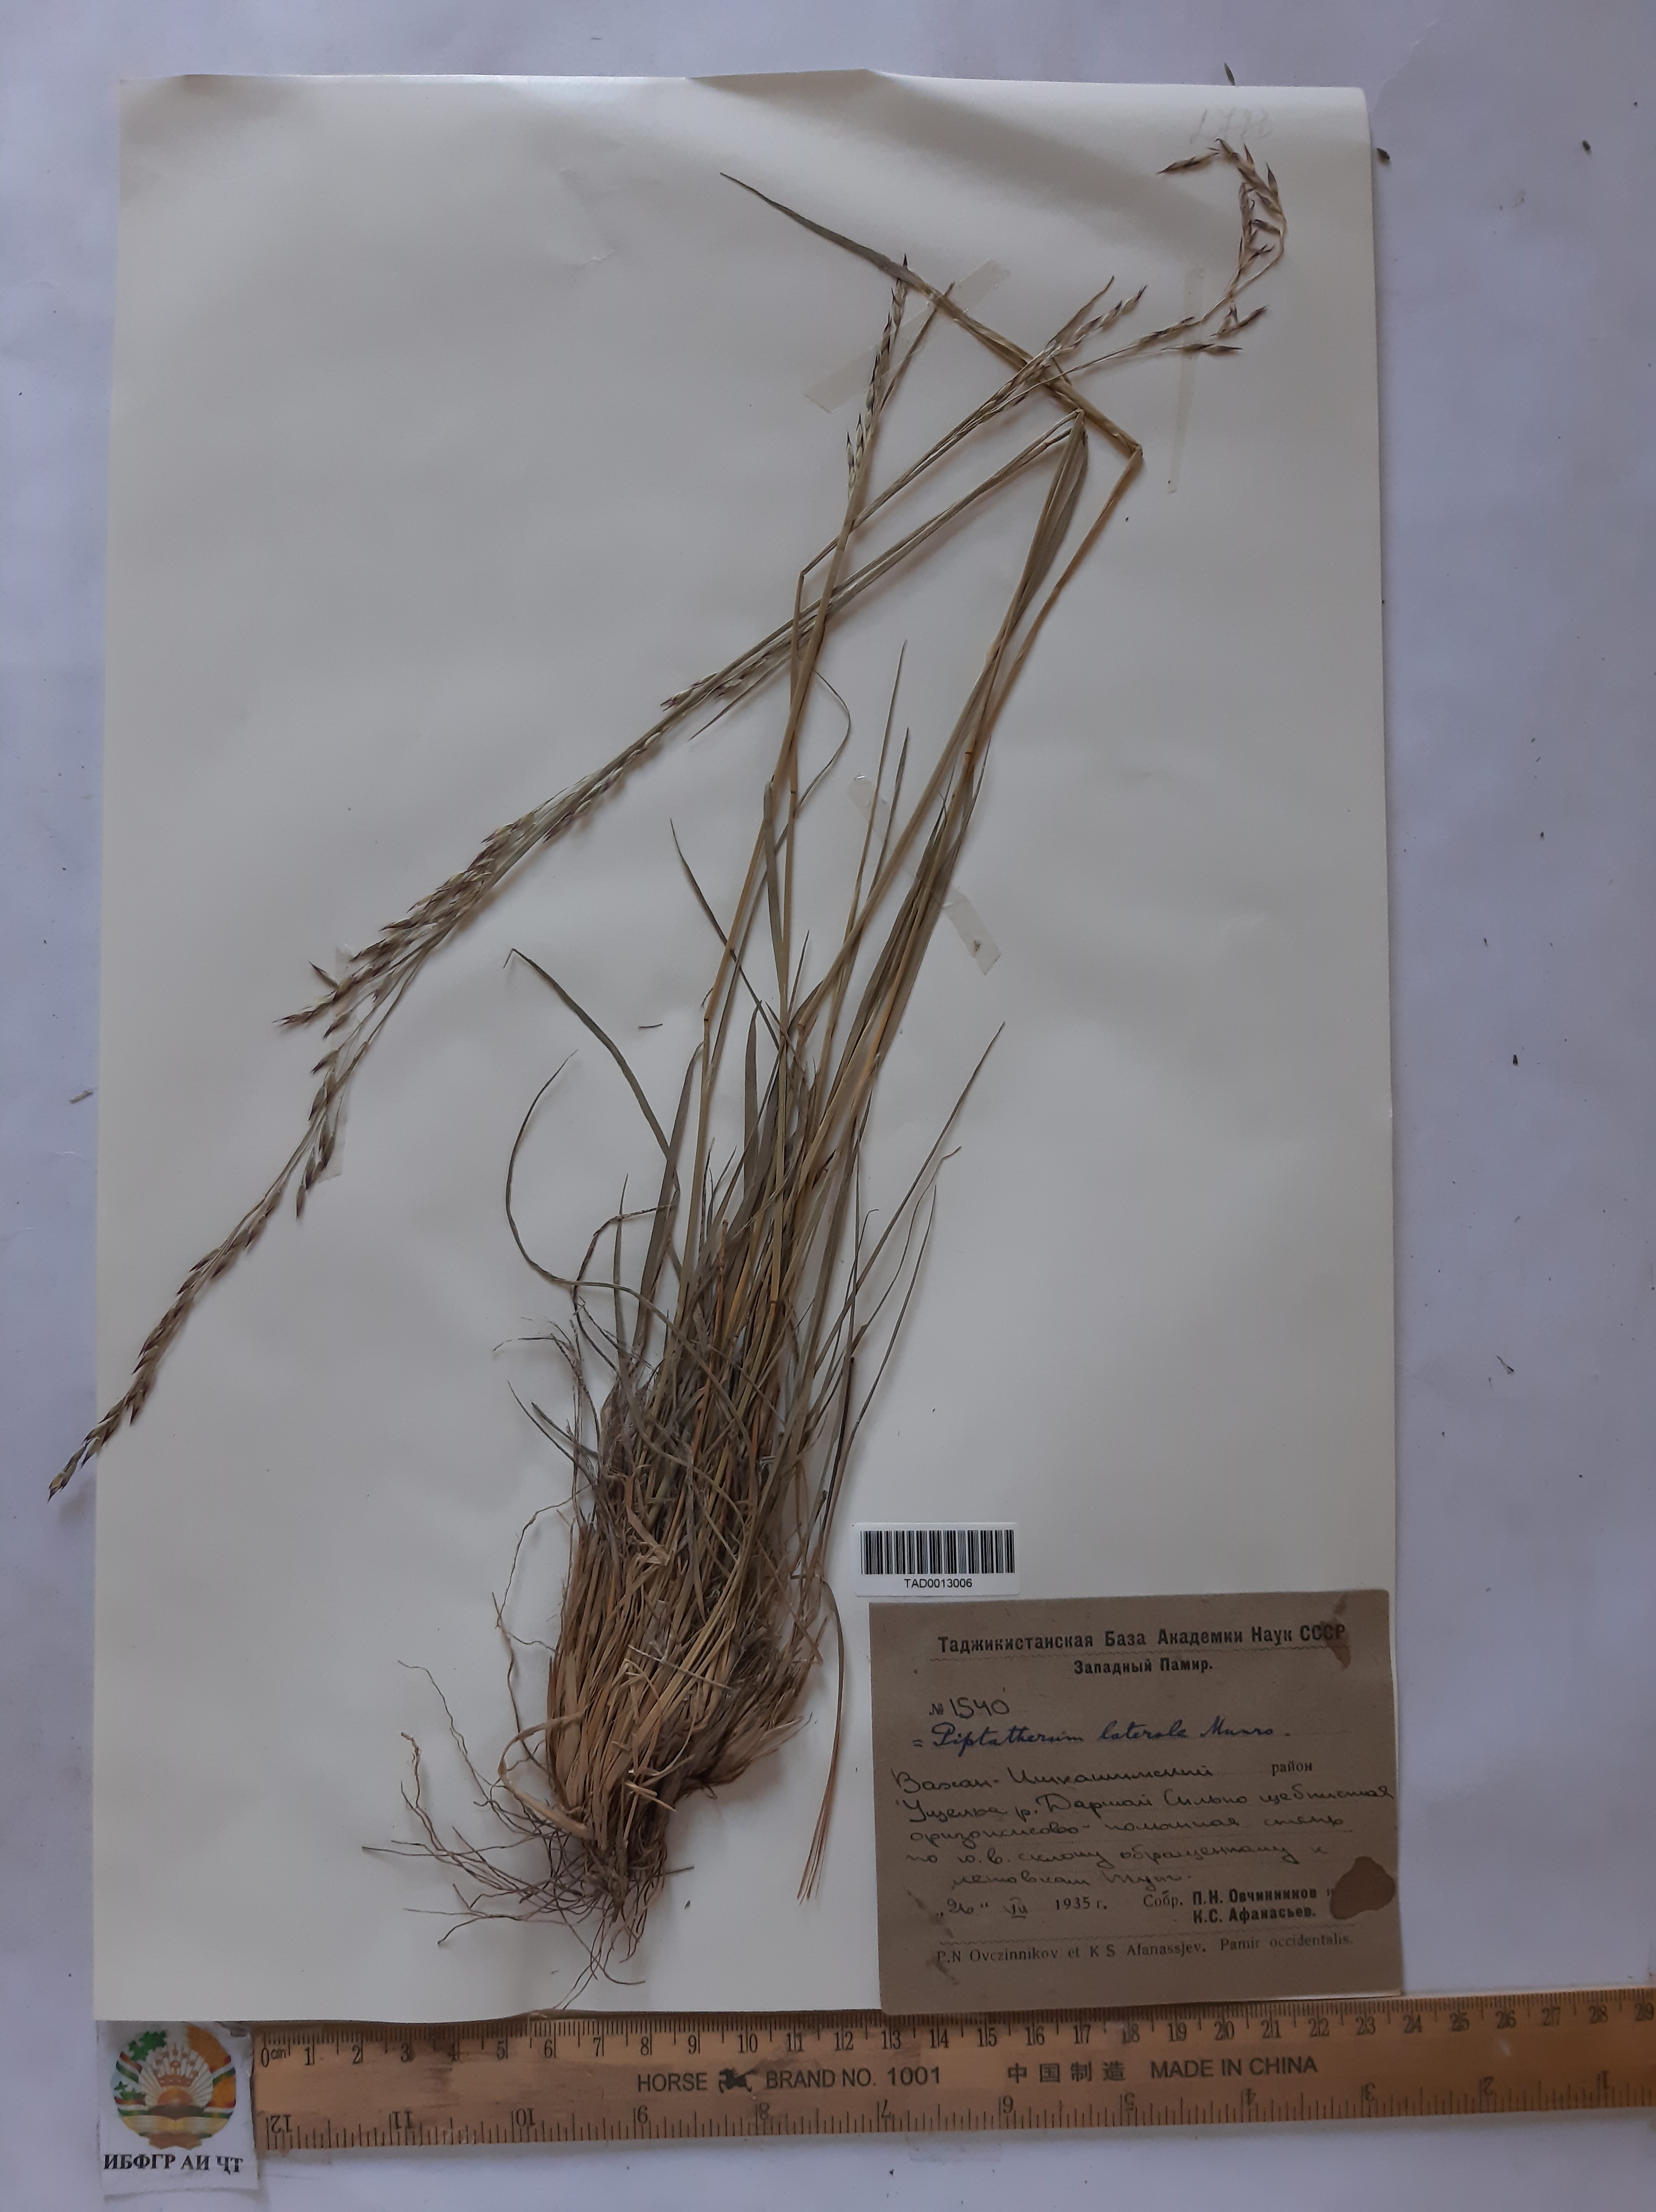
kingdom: Plantae
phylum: Tracheophyta
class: Liliopsida
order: Poales
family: Poaceae
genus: Piptatherum
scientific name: Piptatherum laterale
